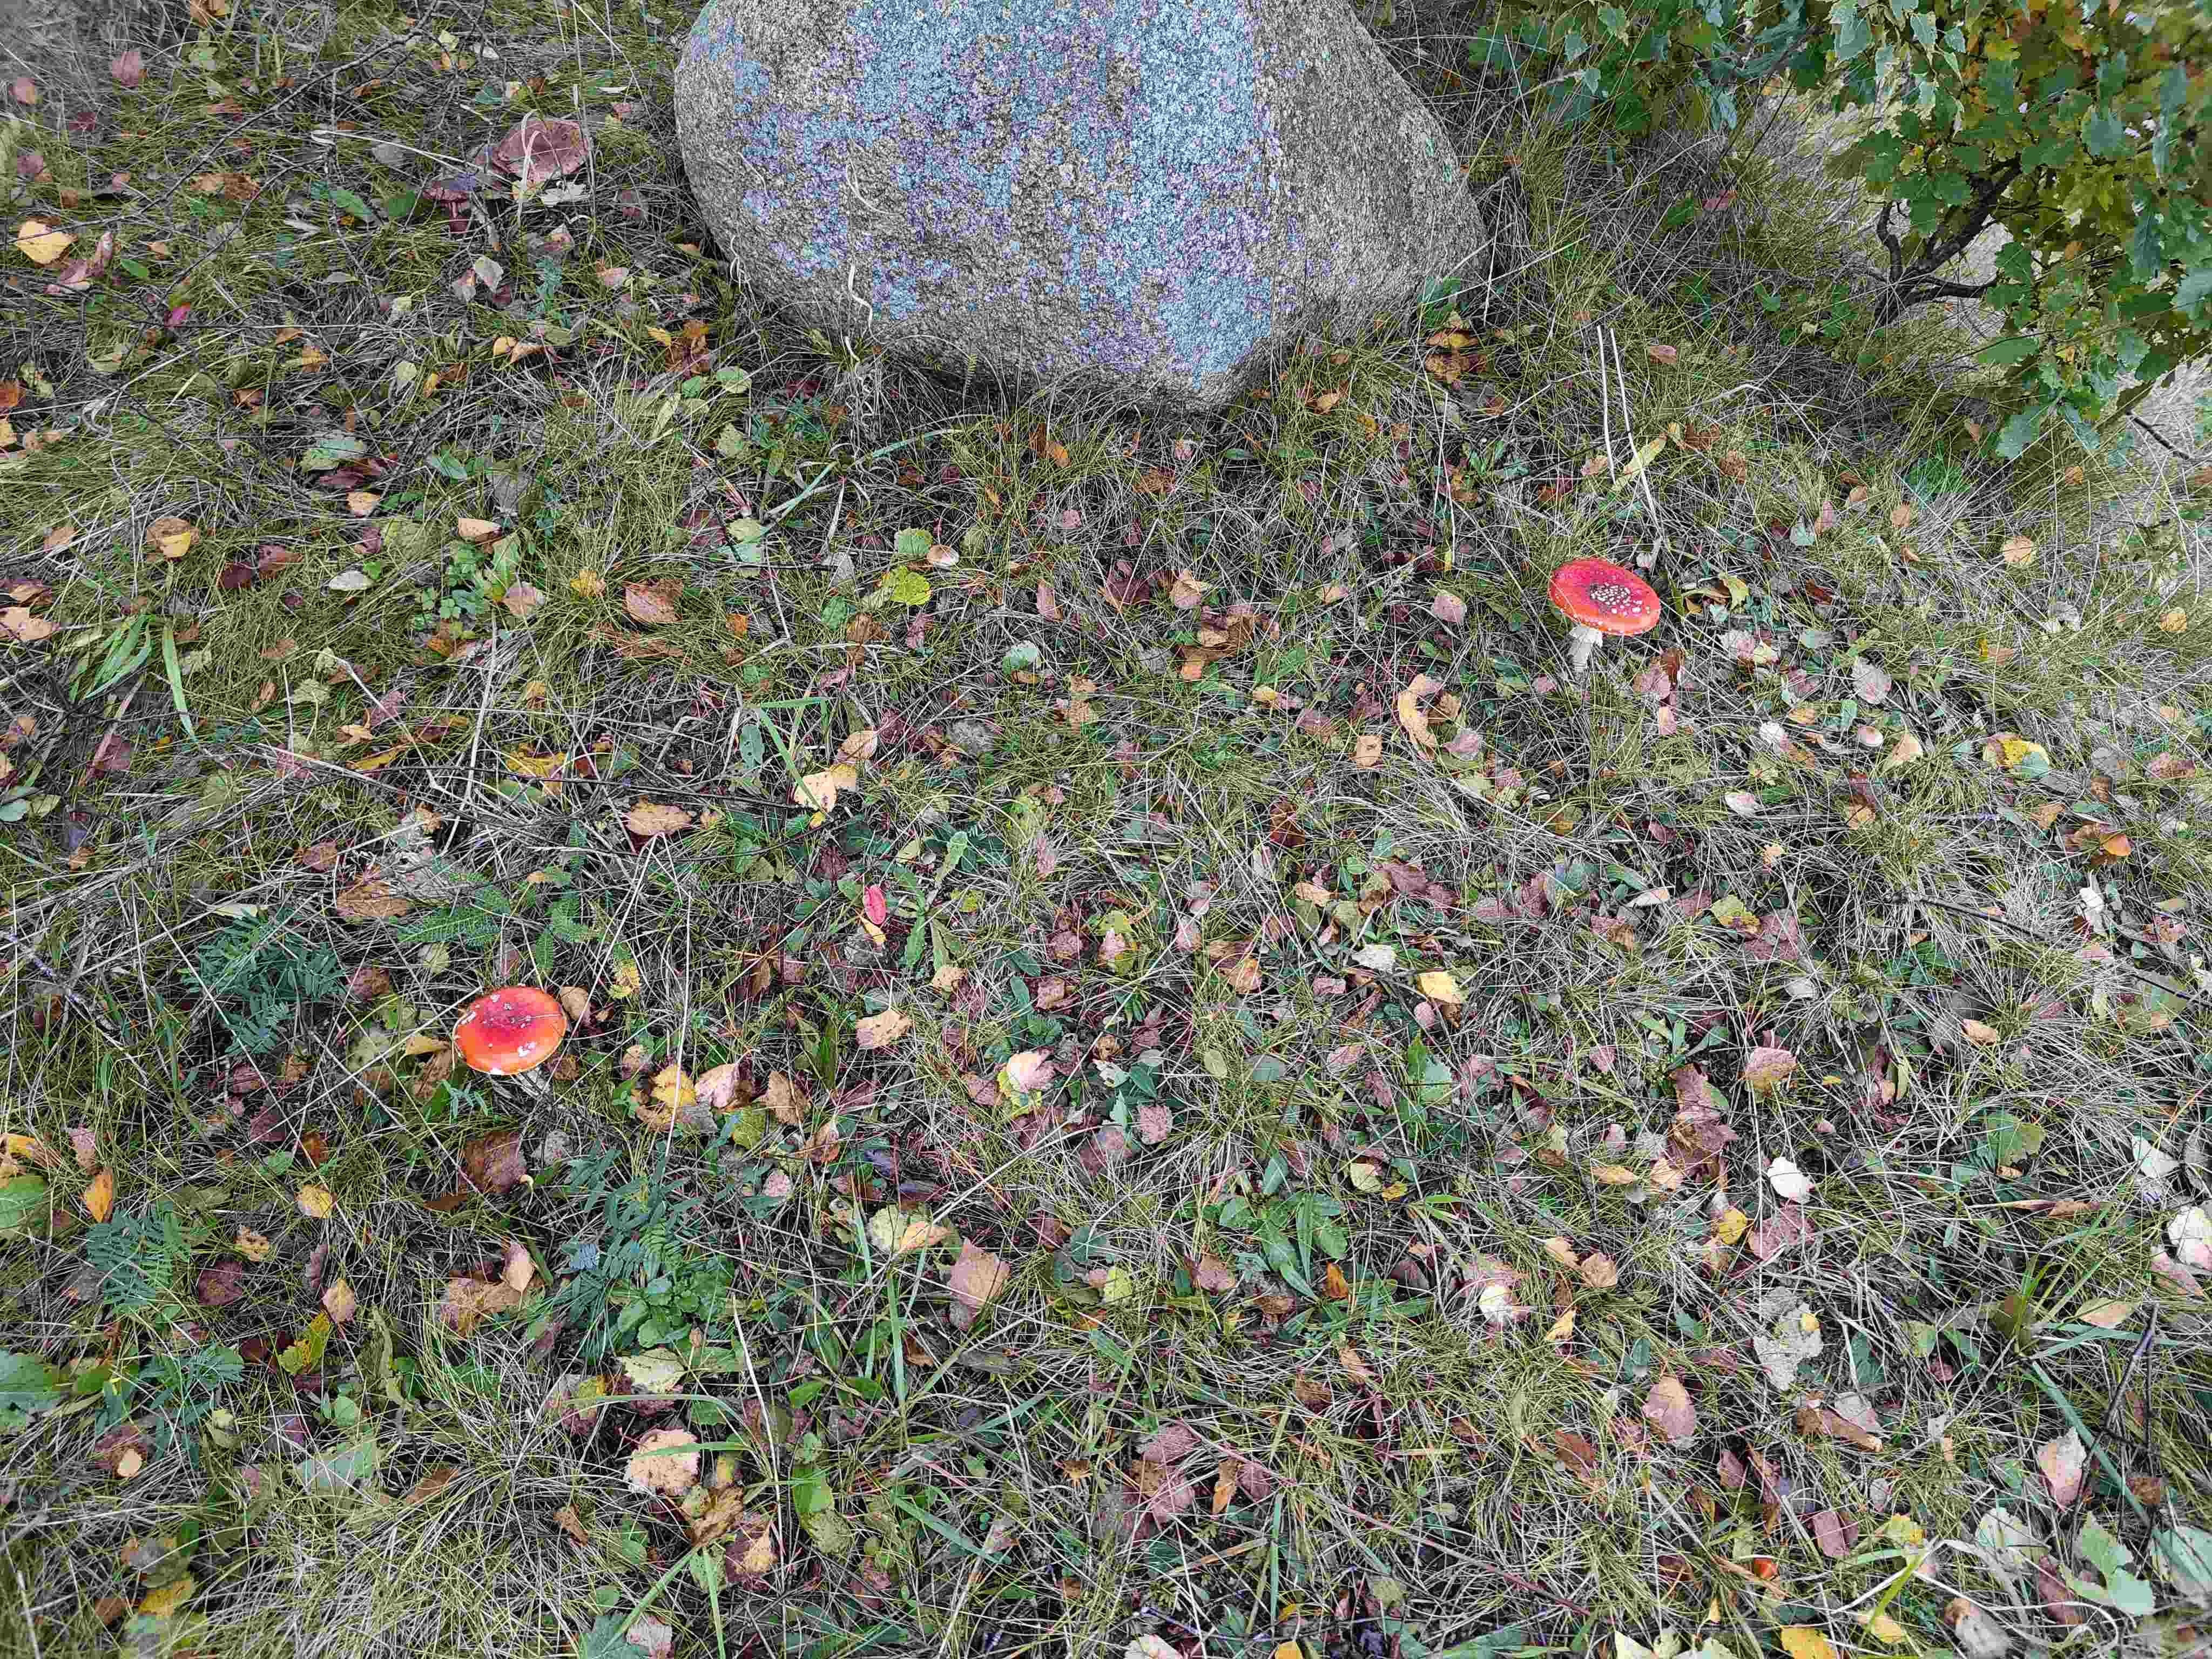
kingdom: Fungi
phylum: Basidiomycota
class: Agaricomycetes
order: Agaricales
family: Amanitaceae
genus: Amanita
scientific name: Amanita muscaria
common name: rød fluesvamp
